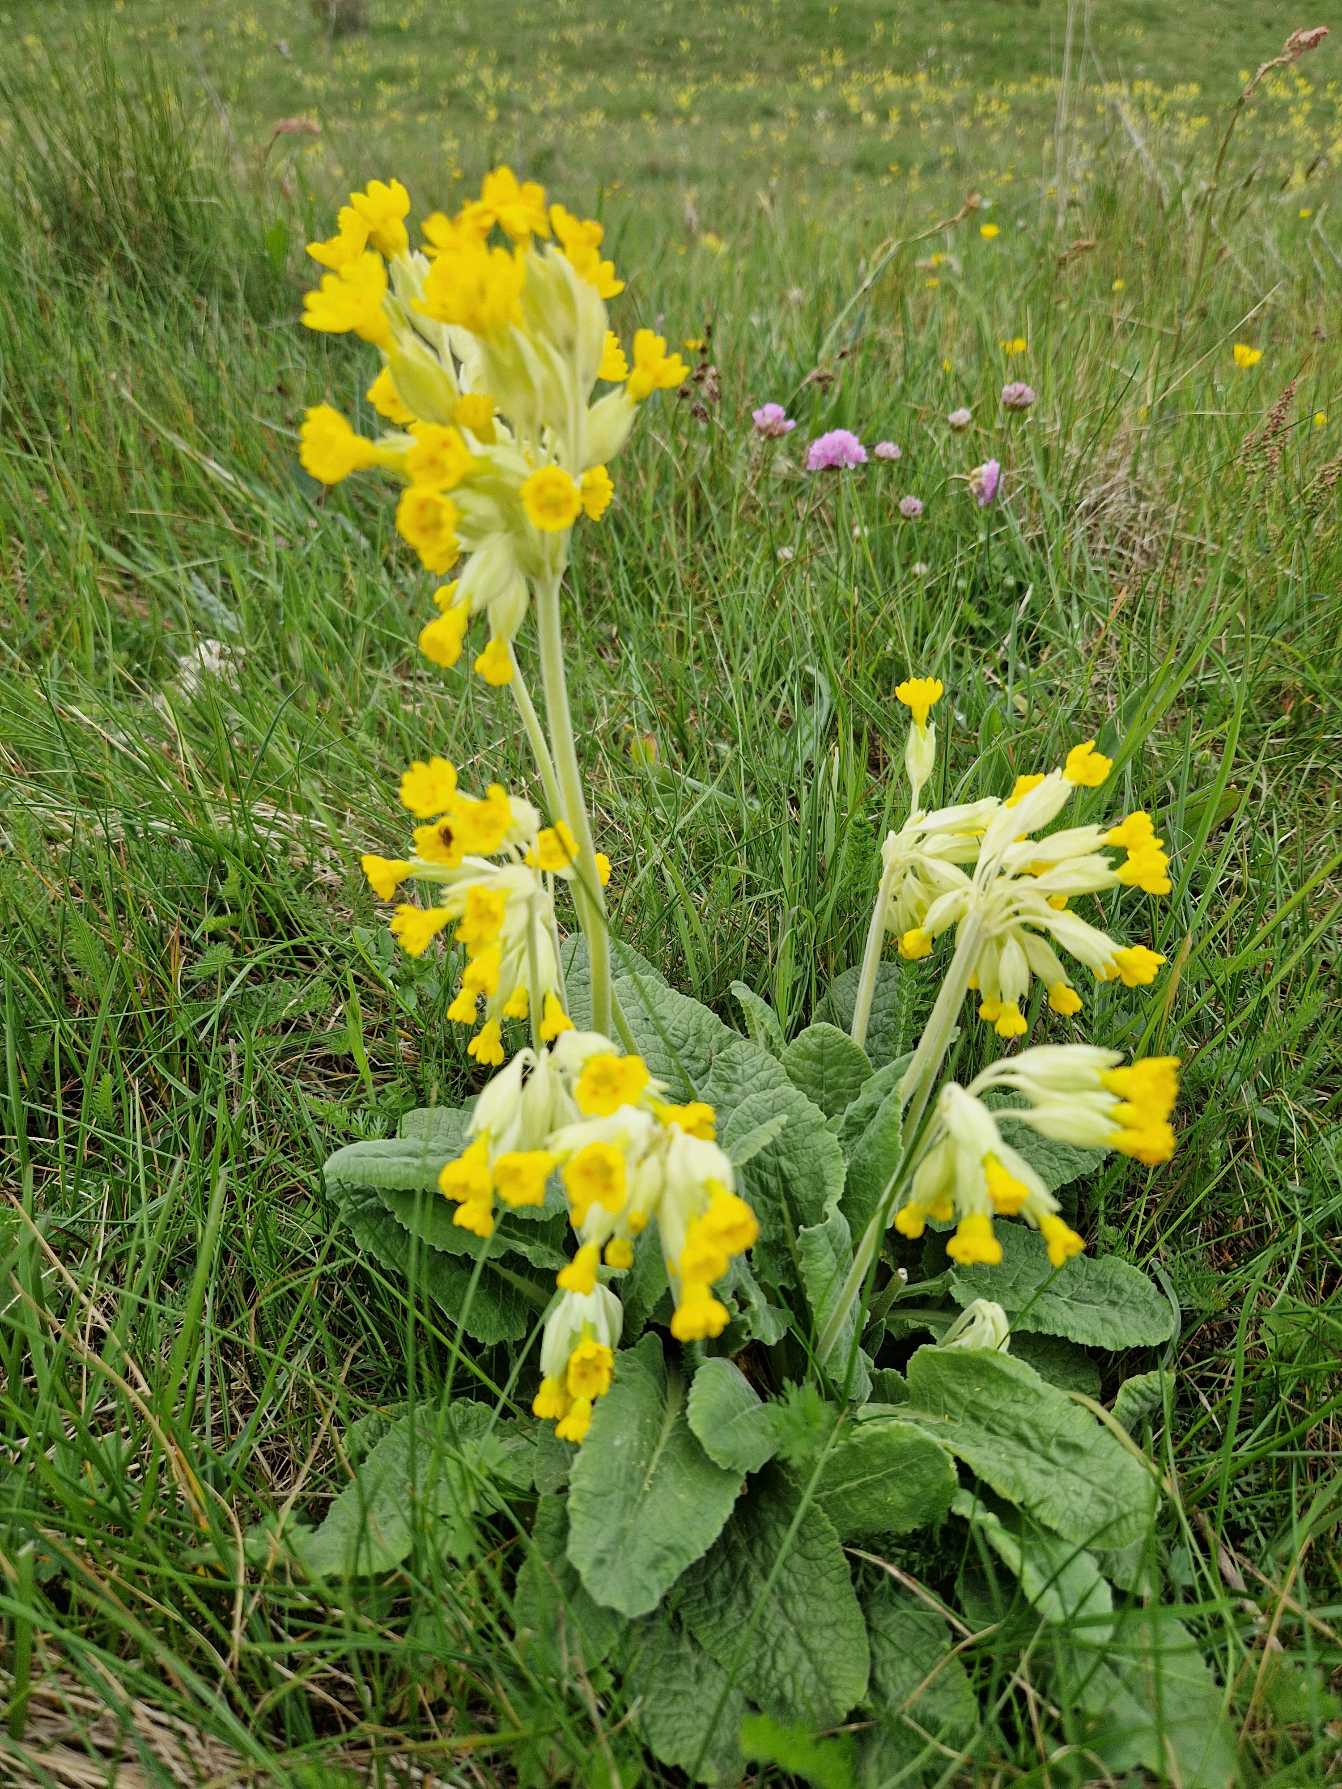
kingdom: Plantae
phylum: Tracheophyta
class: Magnoliopsida
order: Ericales
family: Primulaceae
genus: Primula
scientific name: Primula veris
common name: Hulkravet kodriver
